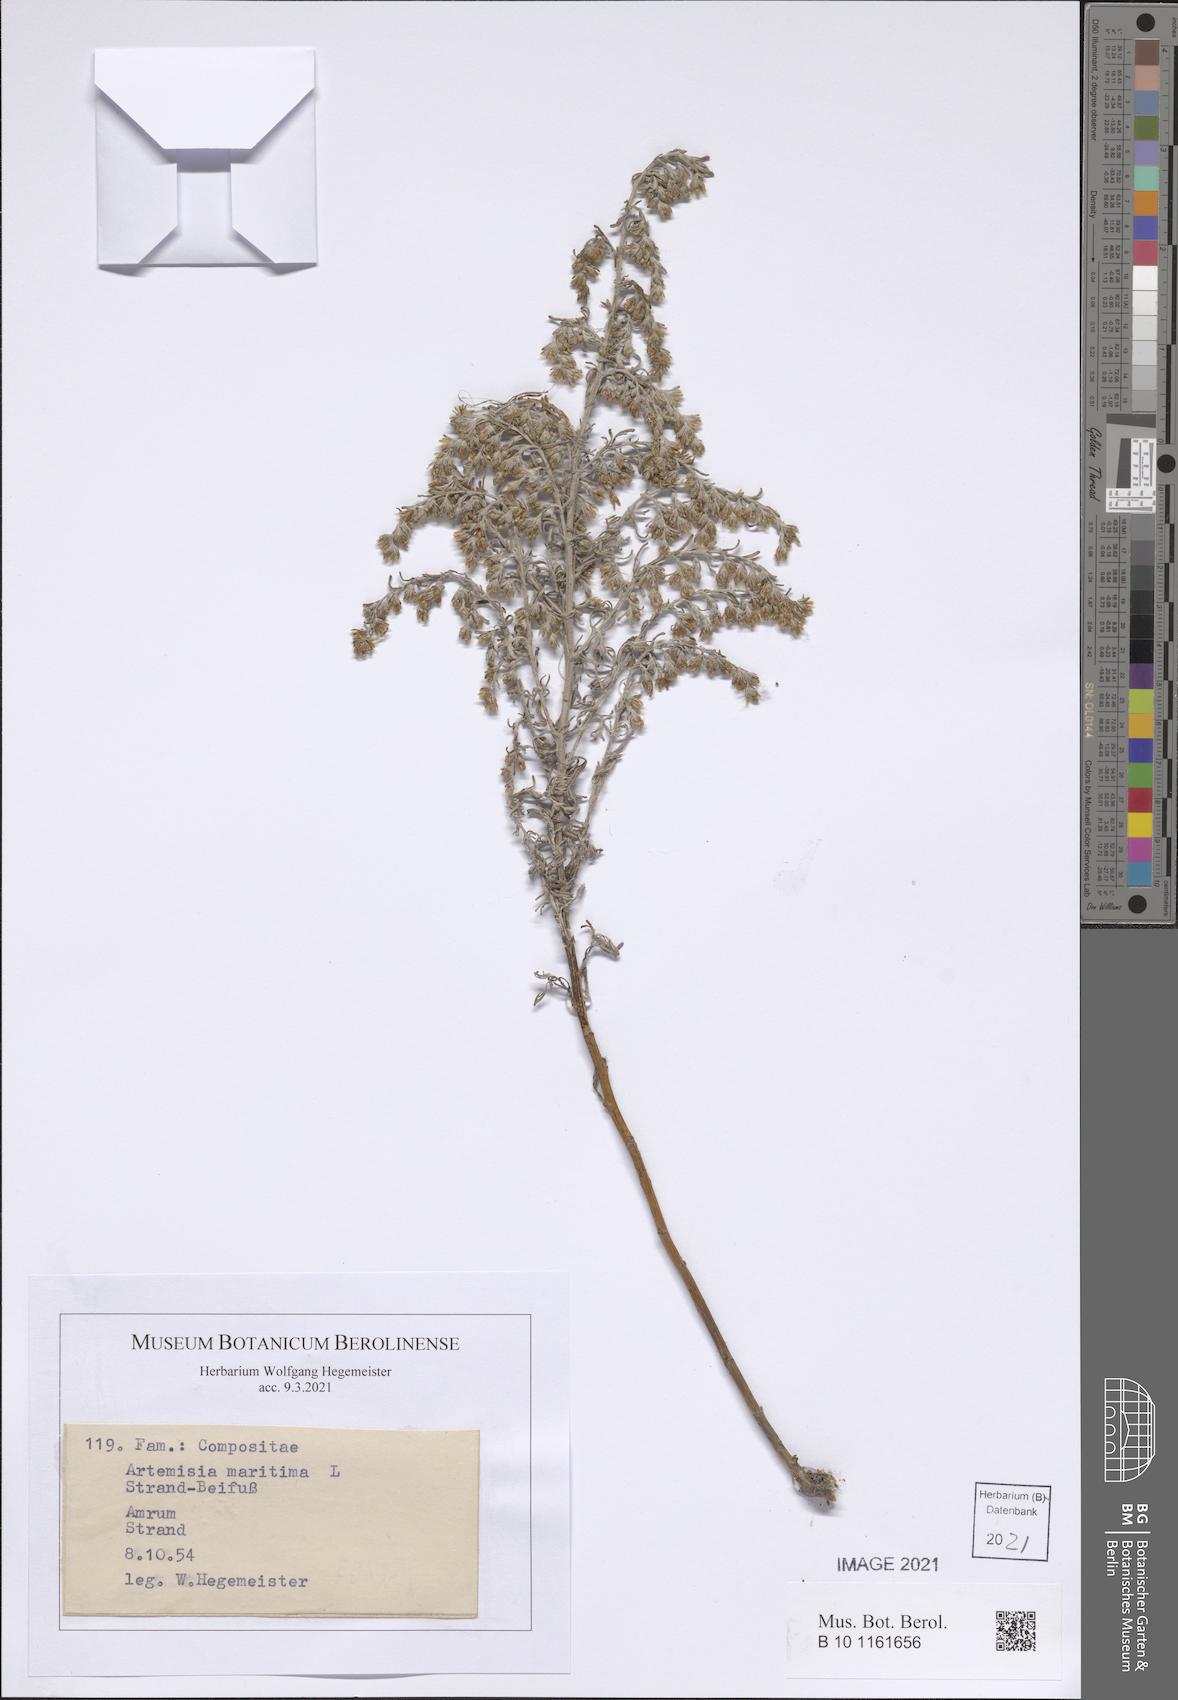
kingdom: Plantae
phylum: Tracheophyta
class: Magnoliopsida
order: Asterales
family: Asteraceae
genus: Artemisia
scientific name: Artemisia maritima
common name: Wormseed
